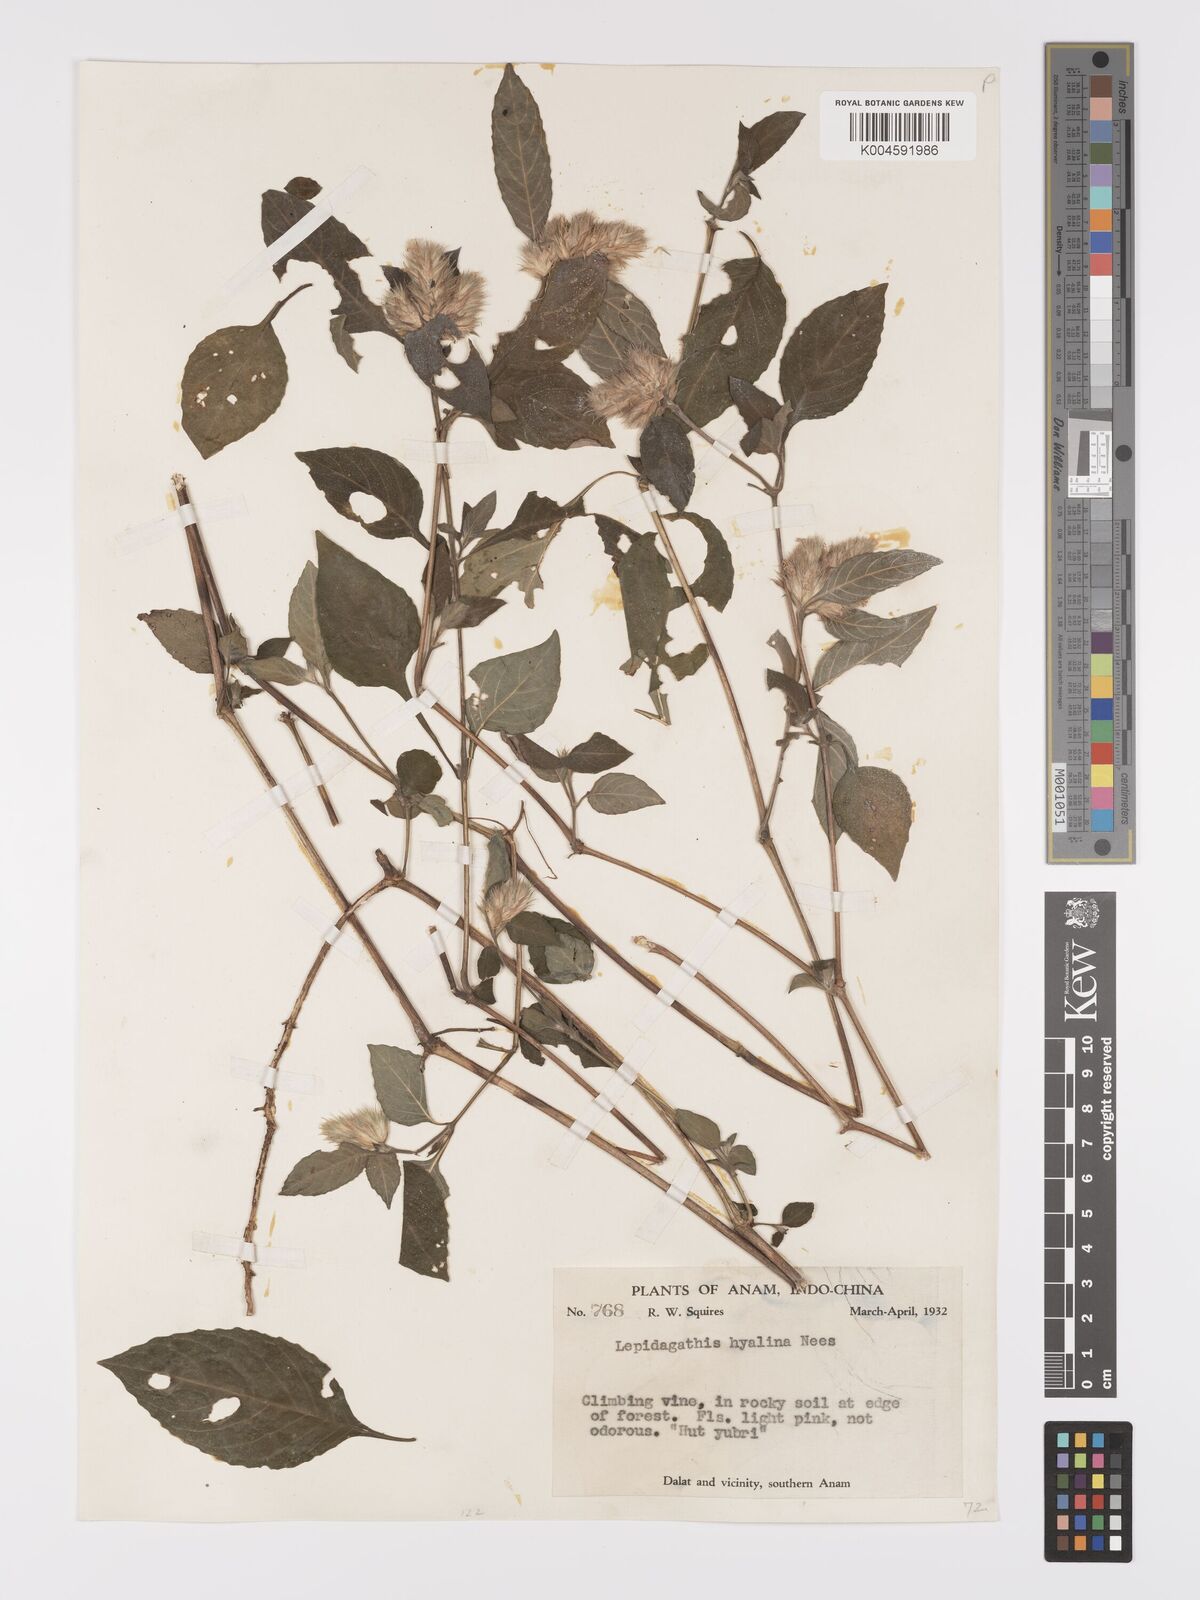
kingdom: Plantae
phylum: Tracheophyta
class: Magnoliopsida
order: Lamiales
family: Acanthaceae
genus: Lepidagathis
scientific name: Lepidagathis incurva
